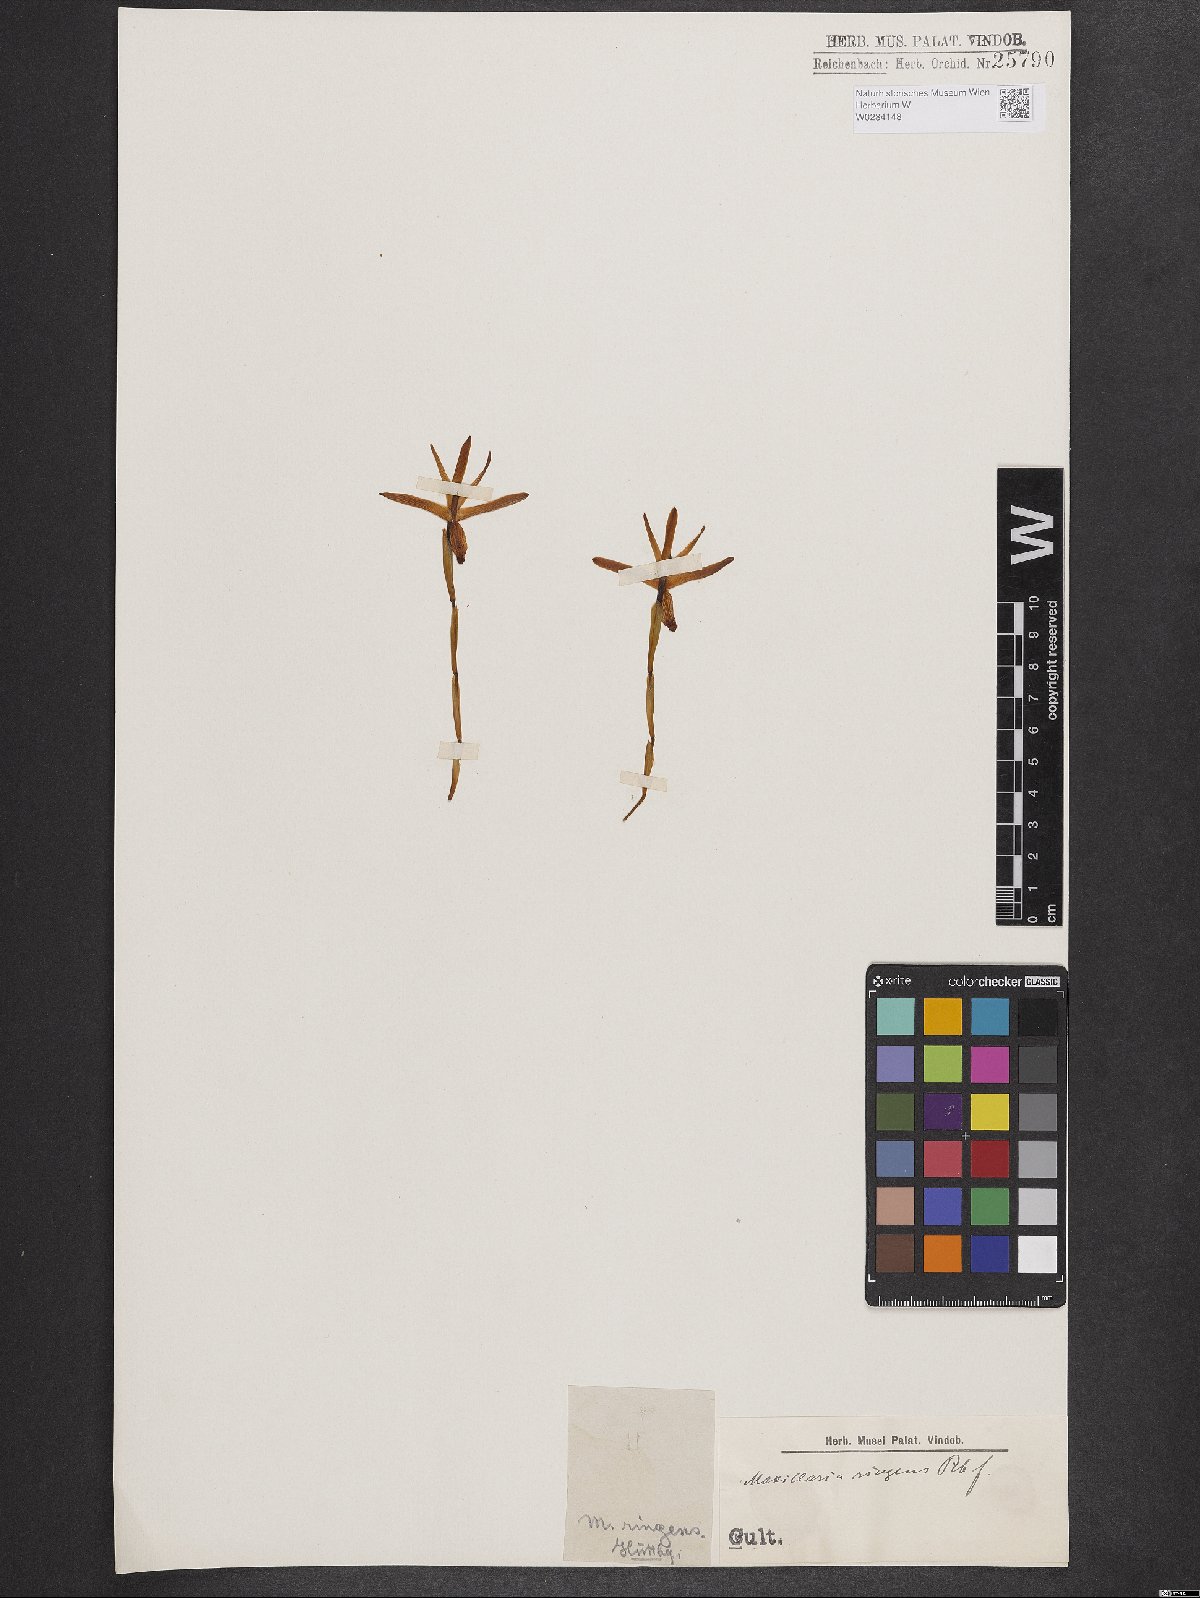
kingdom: Plantae
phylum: Tracheophyta
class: Liliopsida
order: Asparagales
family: Orchidaceae
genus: Maxillaria
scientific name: Maxillaria ringens
